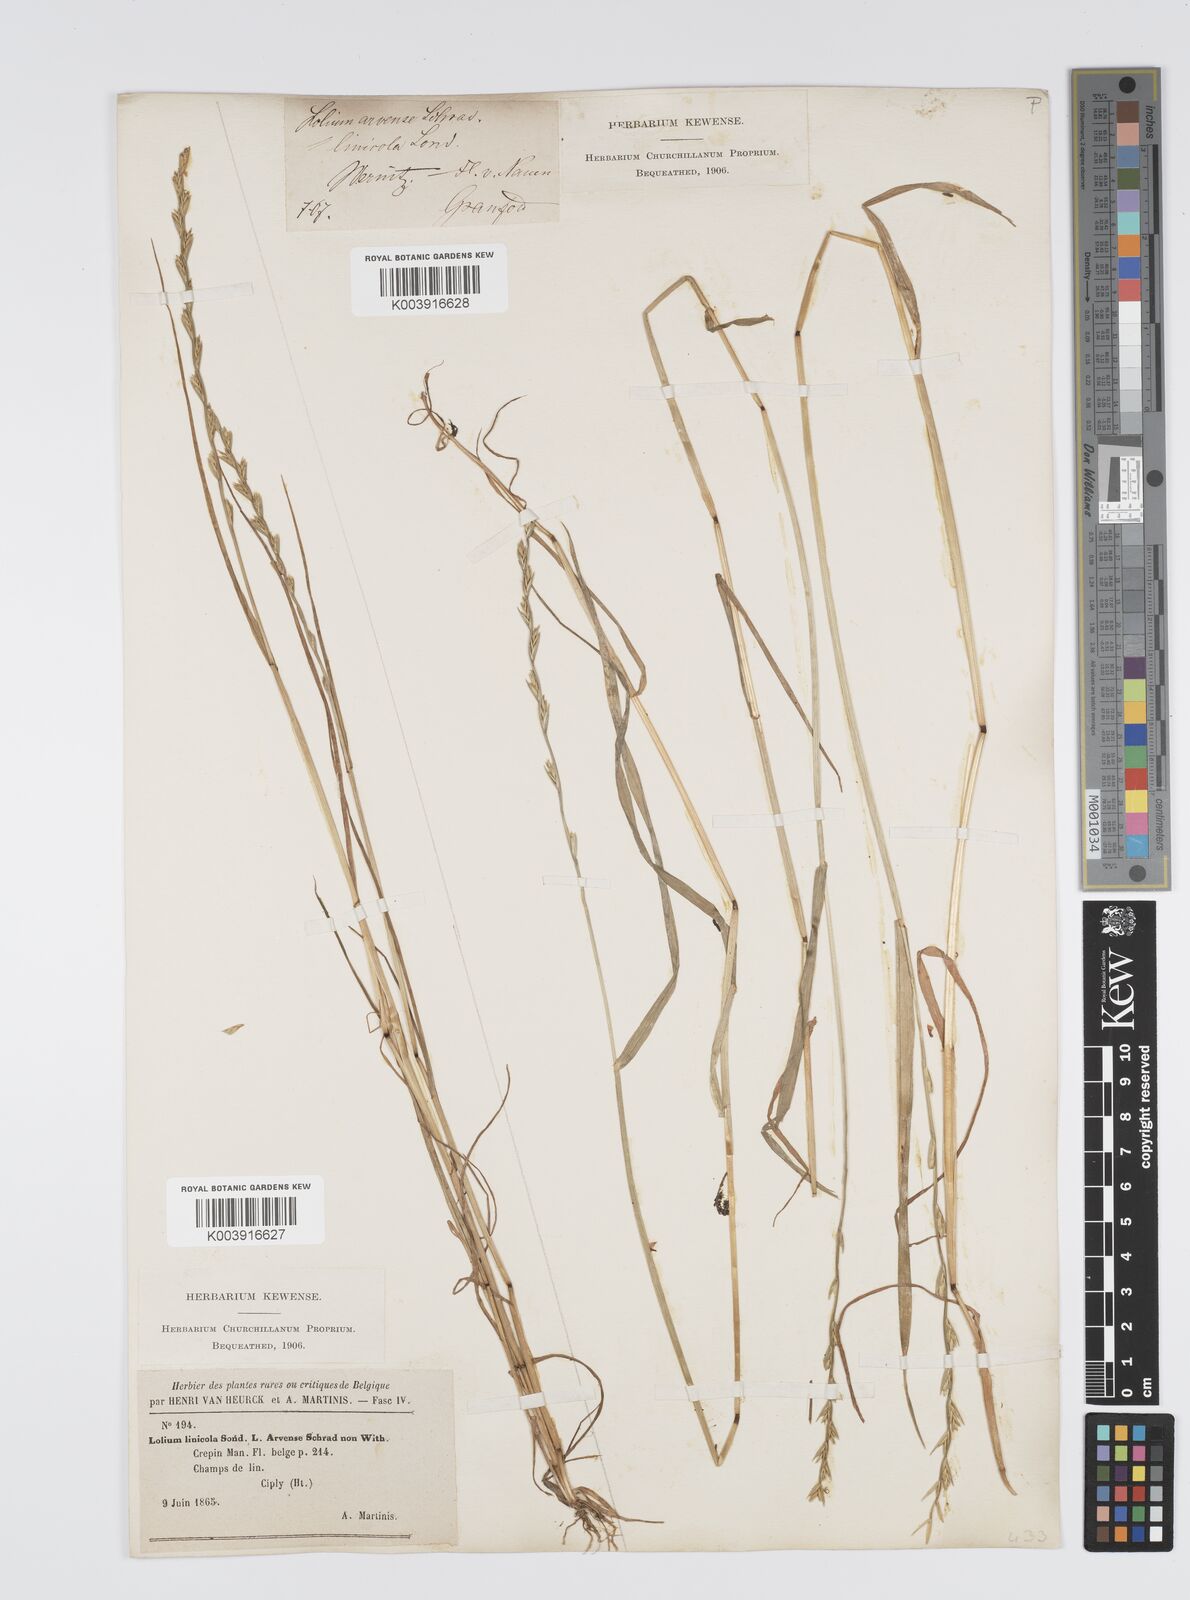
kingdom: Plantae
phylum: Tracheophyta
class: Liliopsida
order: Poales
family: Poaceae
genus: Lolium
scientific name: Lolium remotum
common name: Flaxfield rye-grass
